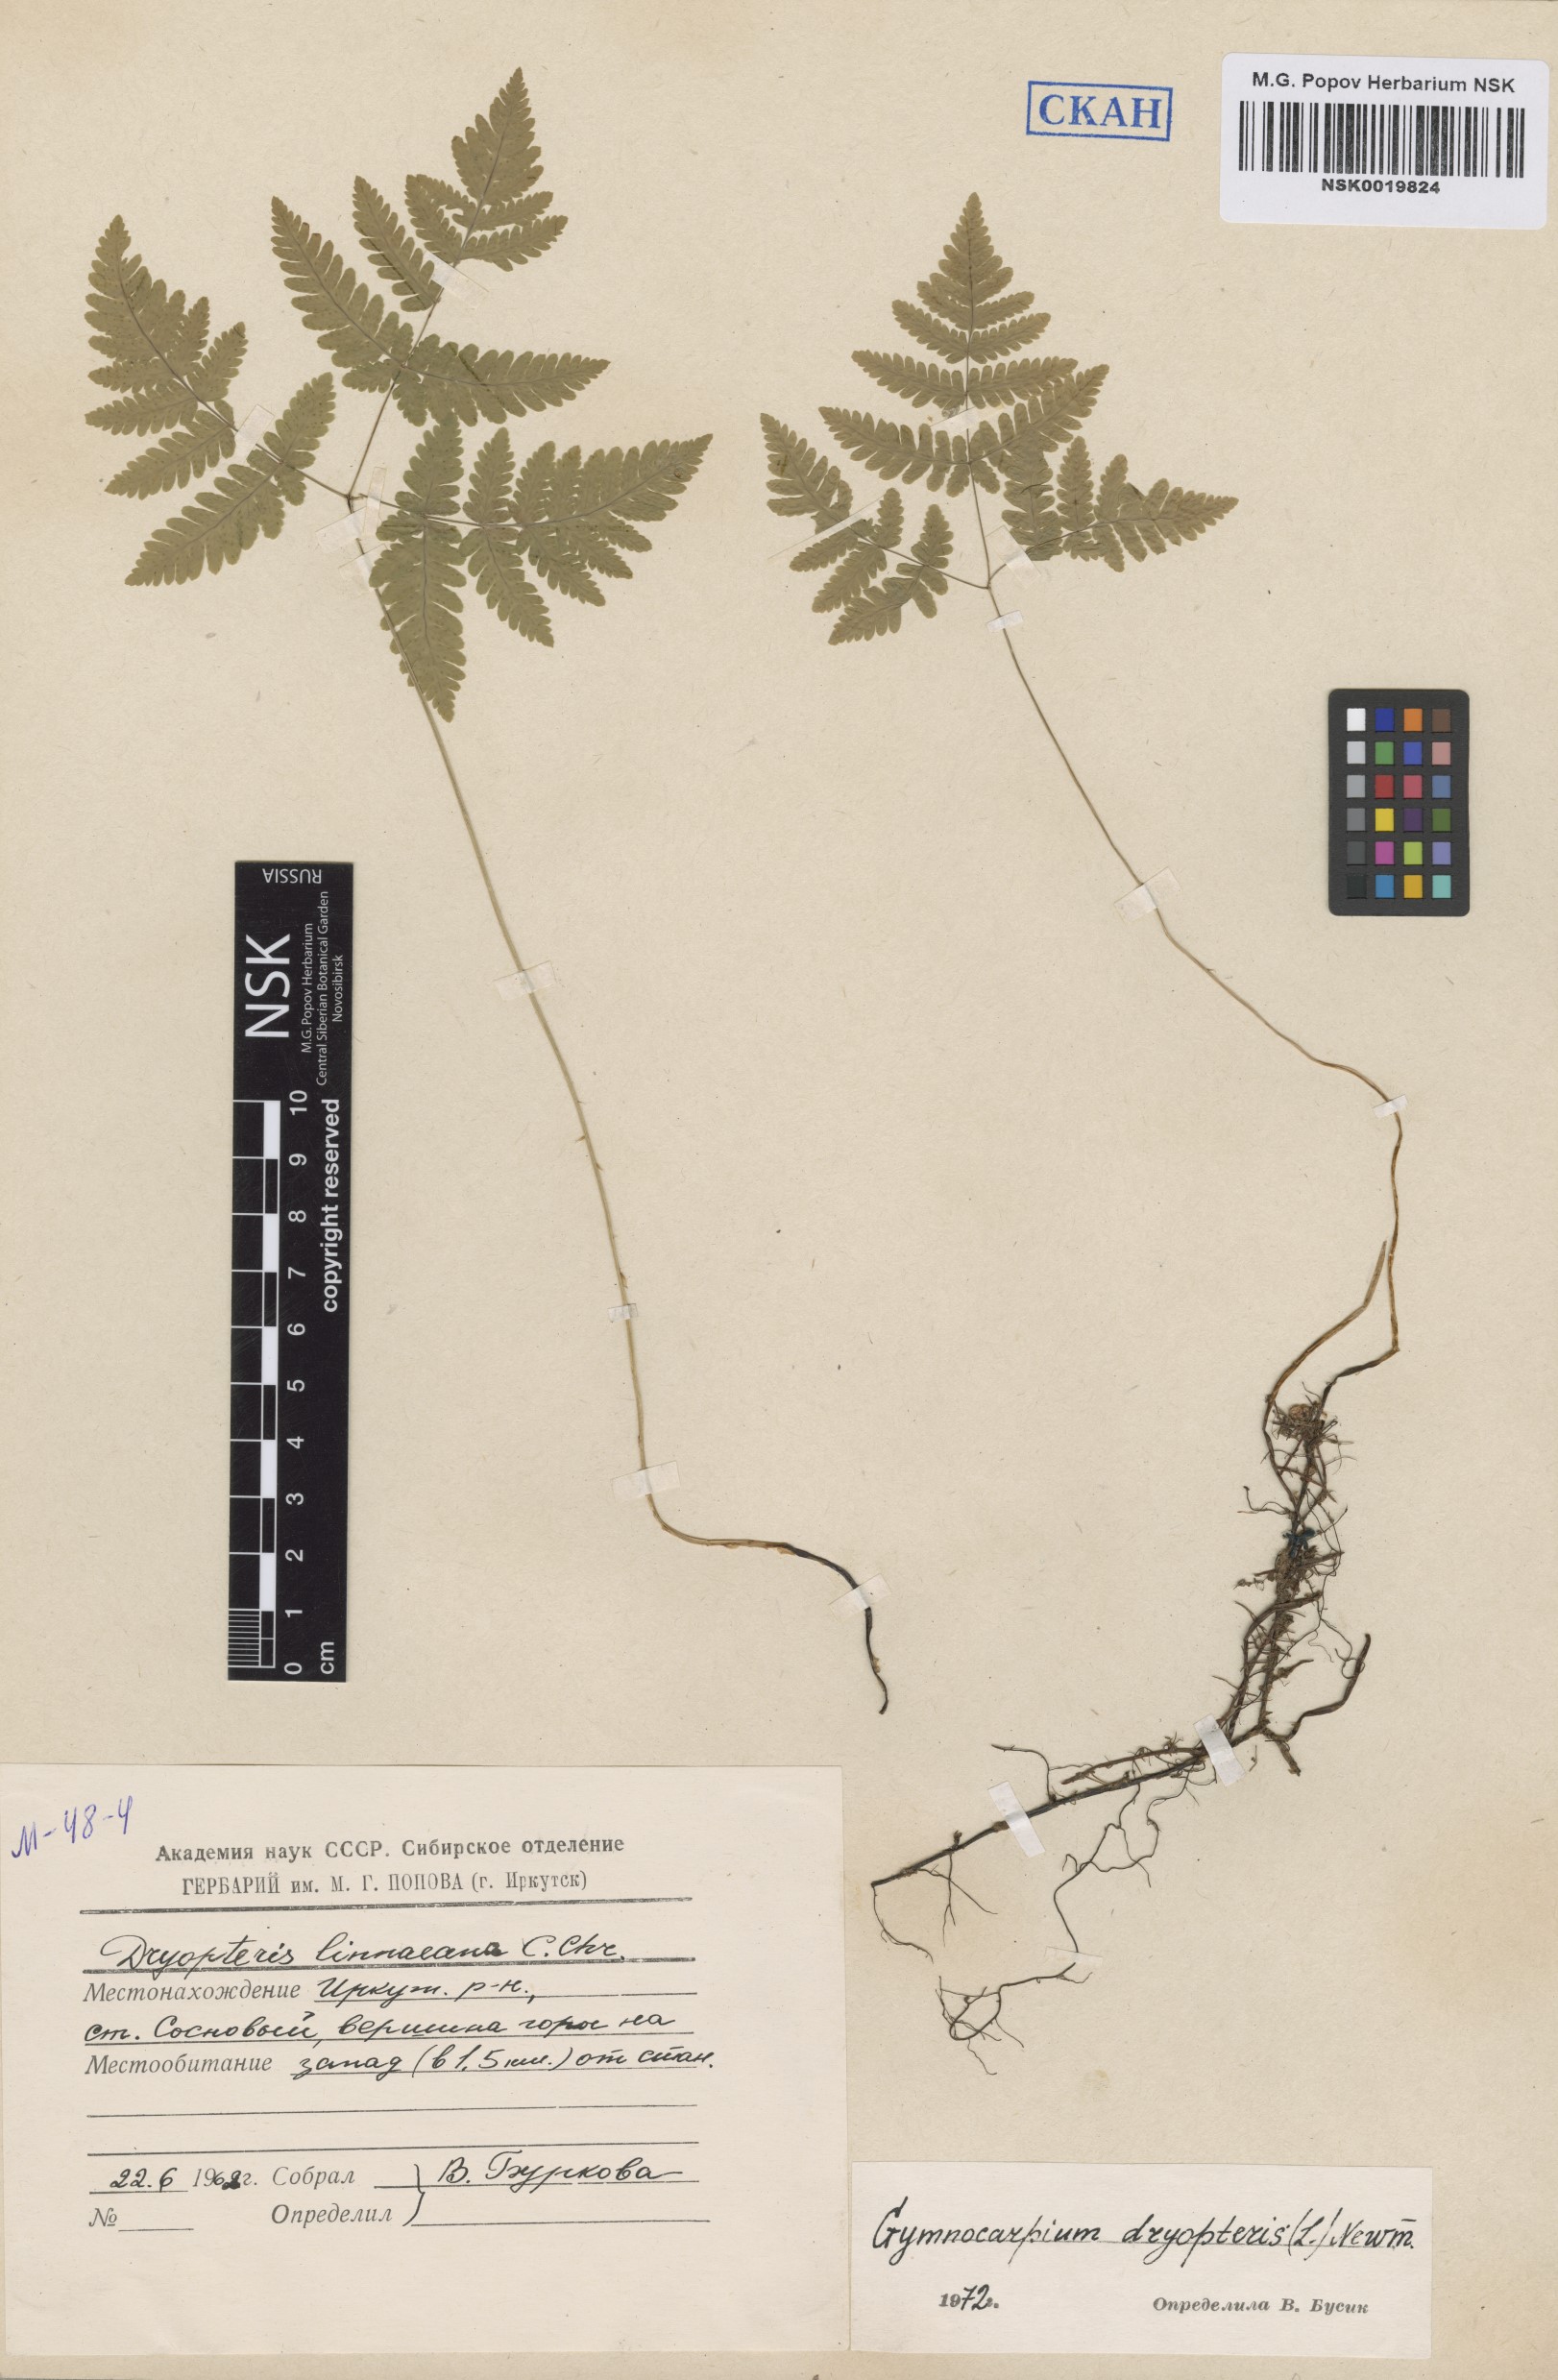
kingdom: Plantae
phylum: Tracheophyta
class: Polypodiopsida
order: Polypodiales
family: Cystopteridaceae
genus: Gymnocarpium
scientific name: Gymnocarpium dryopteris
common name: Oak fern
